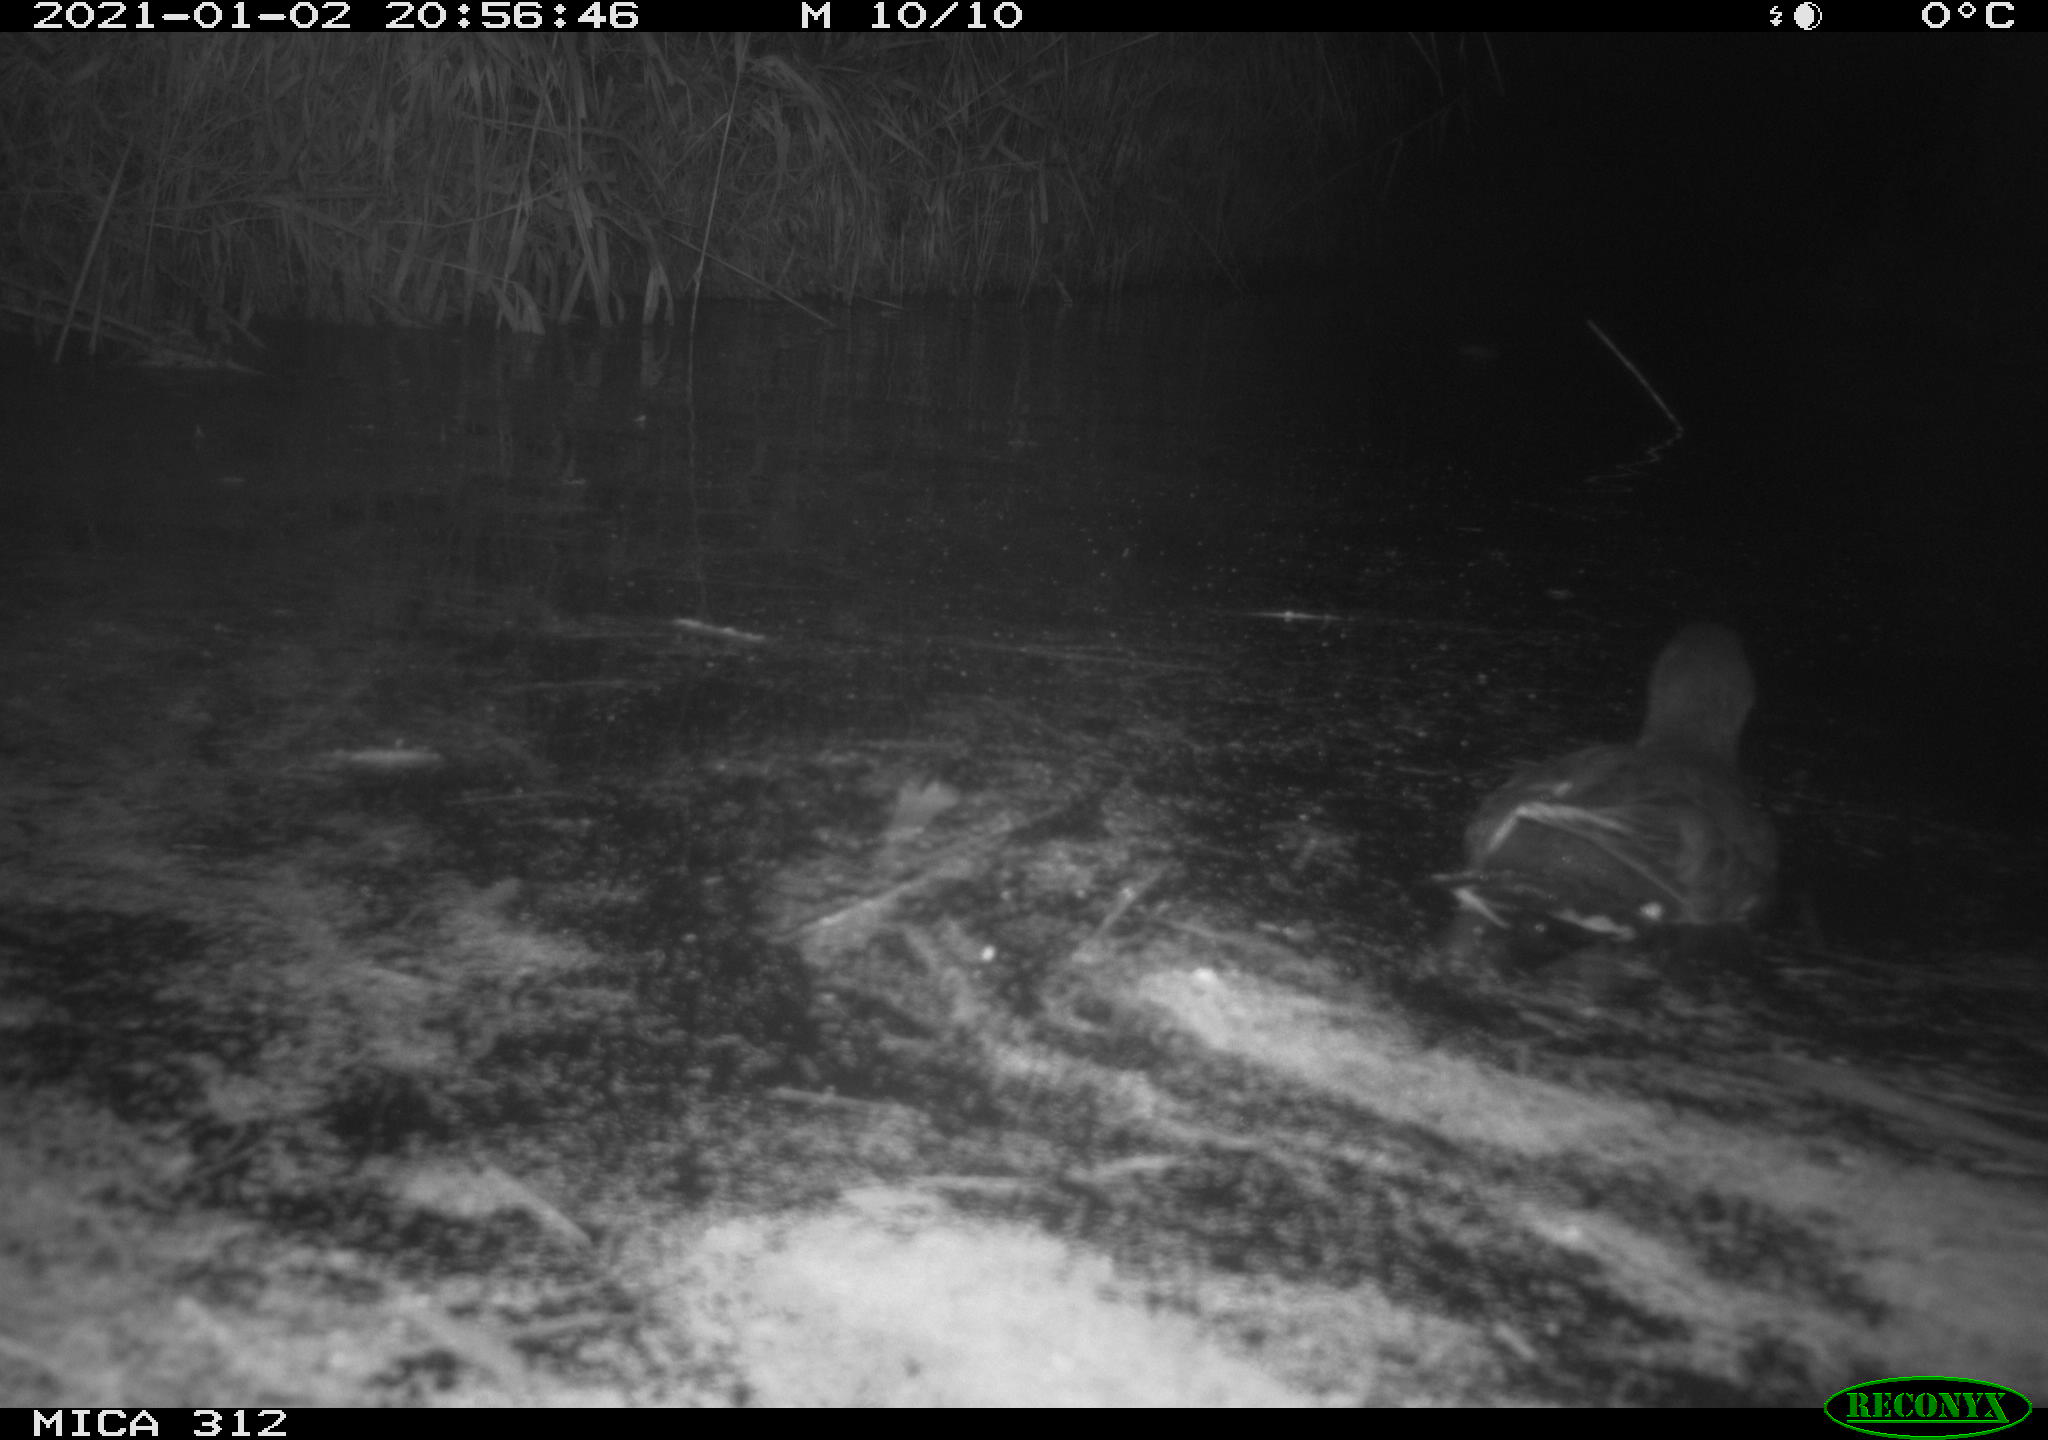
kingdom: Animalia
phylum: Chordata
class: Mammalia
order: Rodentia
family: Muridae
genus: Rattus
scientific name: Rattus norvegicus
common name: Brown rat
